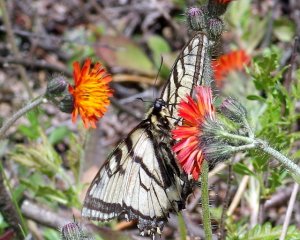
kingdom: Animalia
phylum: Arthropoda
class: Insecta
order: Lepidoptera
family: Papilionidae
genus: Pterourus
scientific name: Pterourus canadensis
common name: Canadian Tiger Swallowtail
